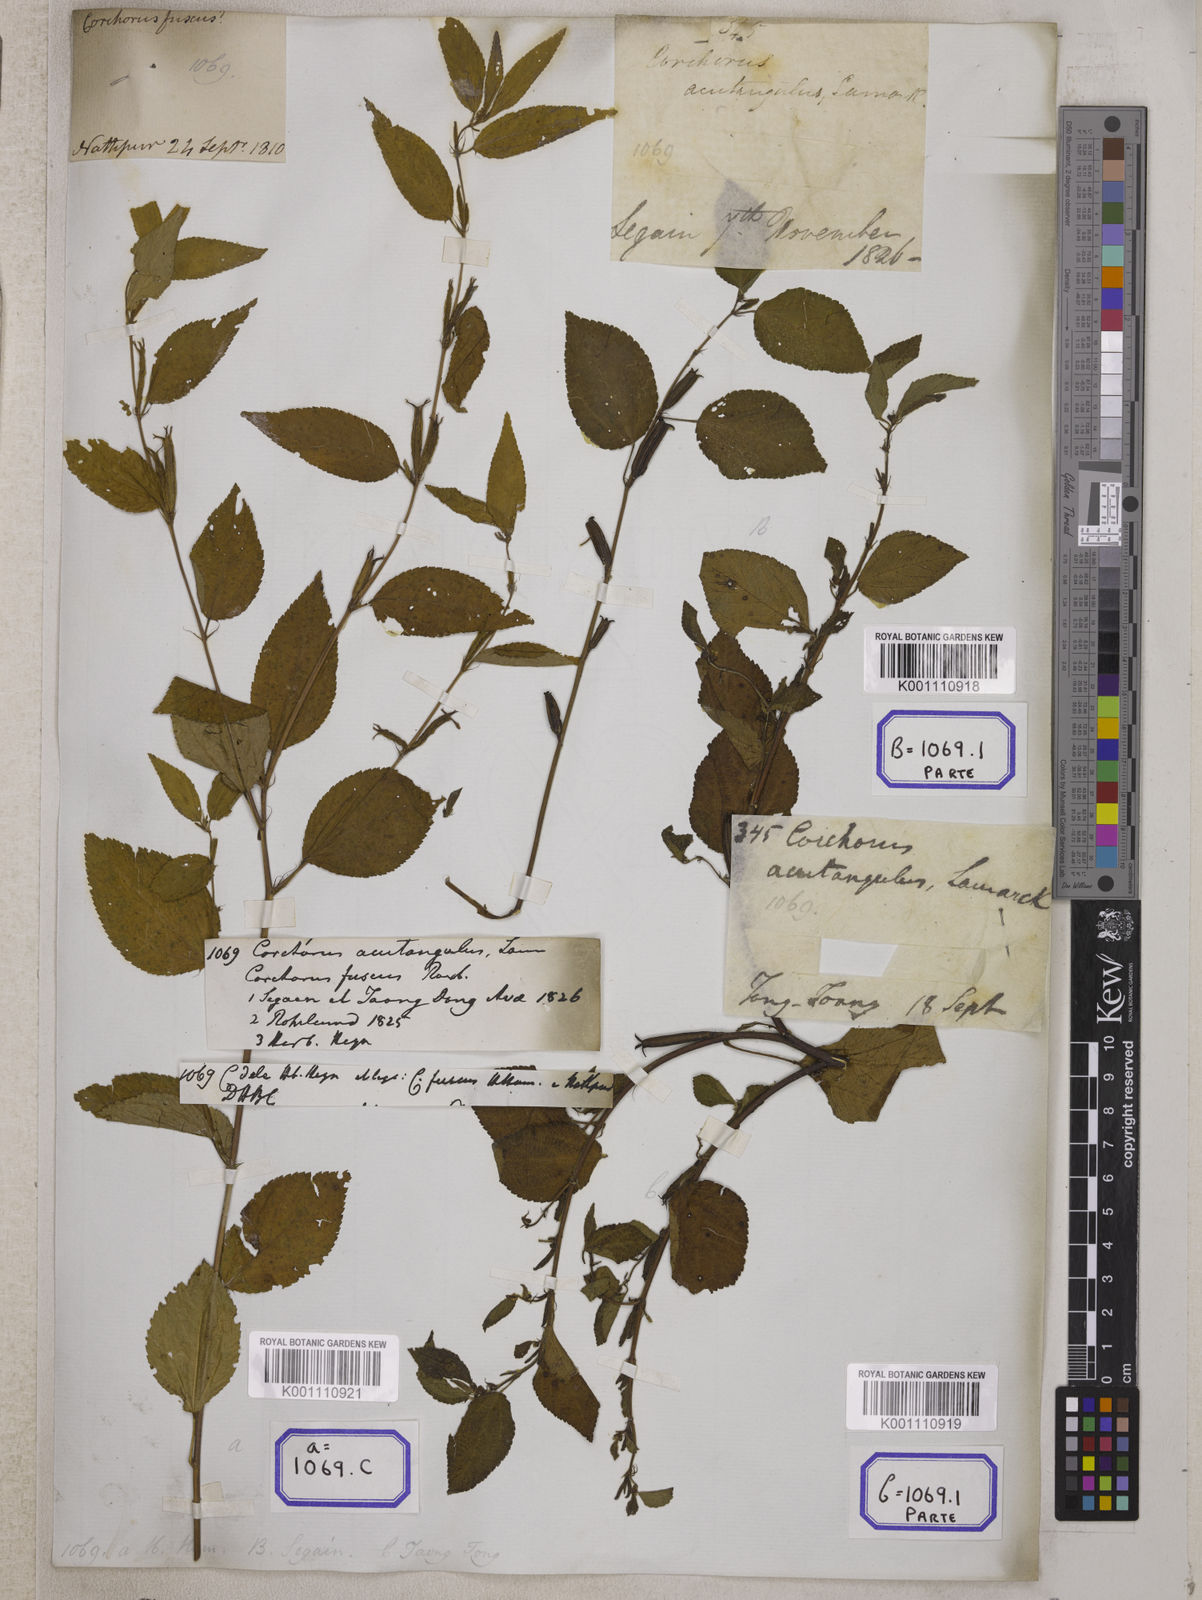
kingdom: Plantae
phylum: Tracheophyta
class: Magnoliopsida
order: Malvales
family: Malvaceae
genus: Corchorus
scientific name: Corchorus aestuans
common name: Jute
